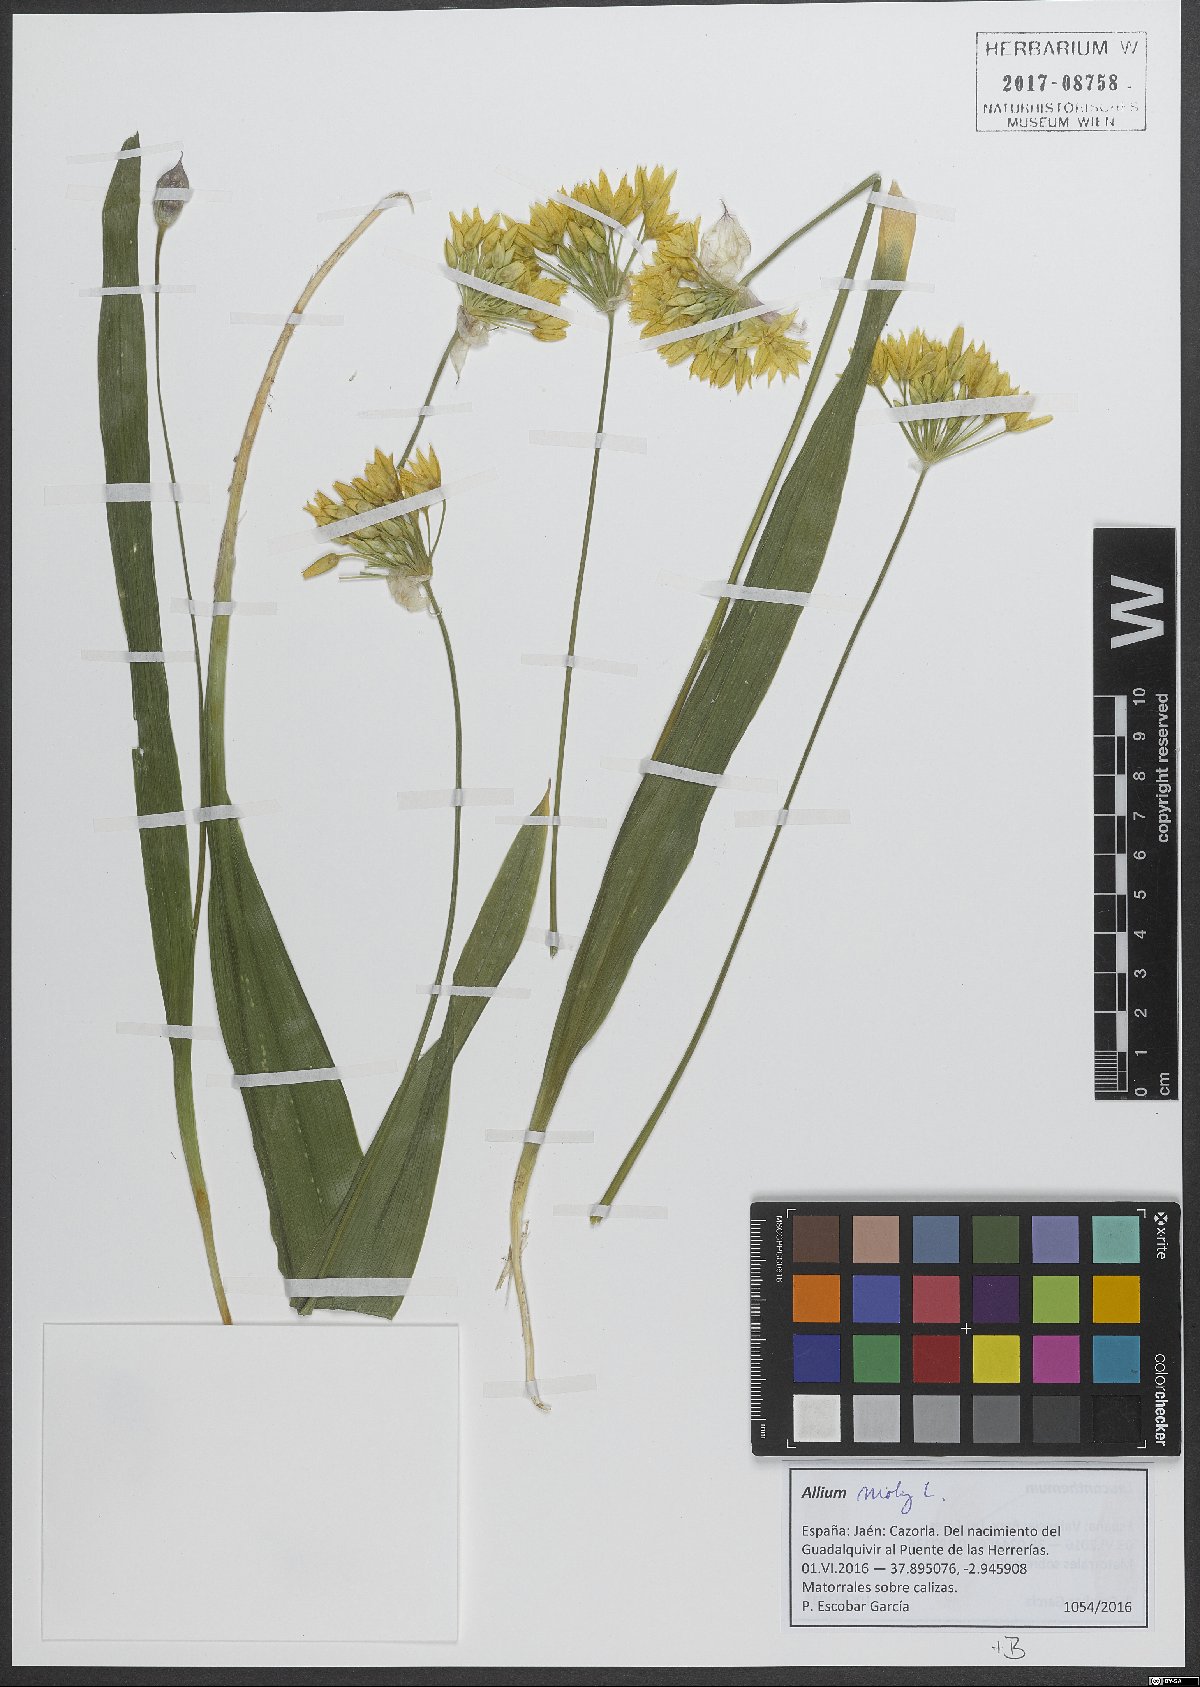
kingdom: Plantae
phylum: Tracheophyta
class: Liliopsida
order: Asparagales
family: Amaryllidaceae
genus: Allium
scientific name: Allium moly
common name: Yellow garlic
